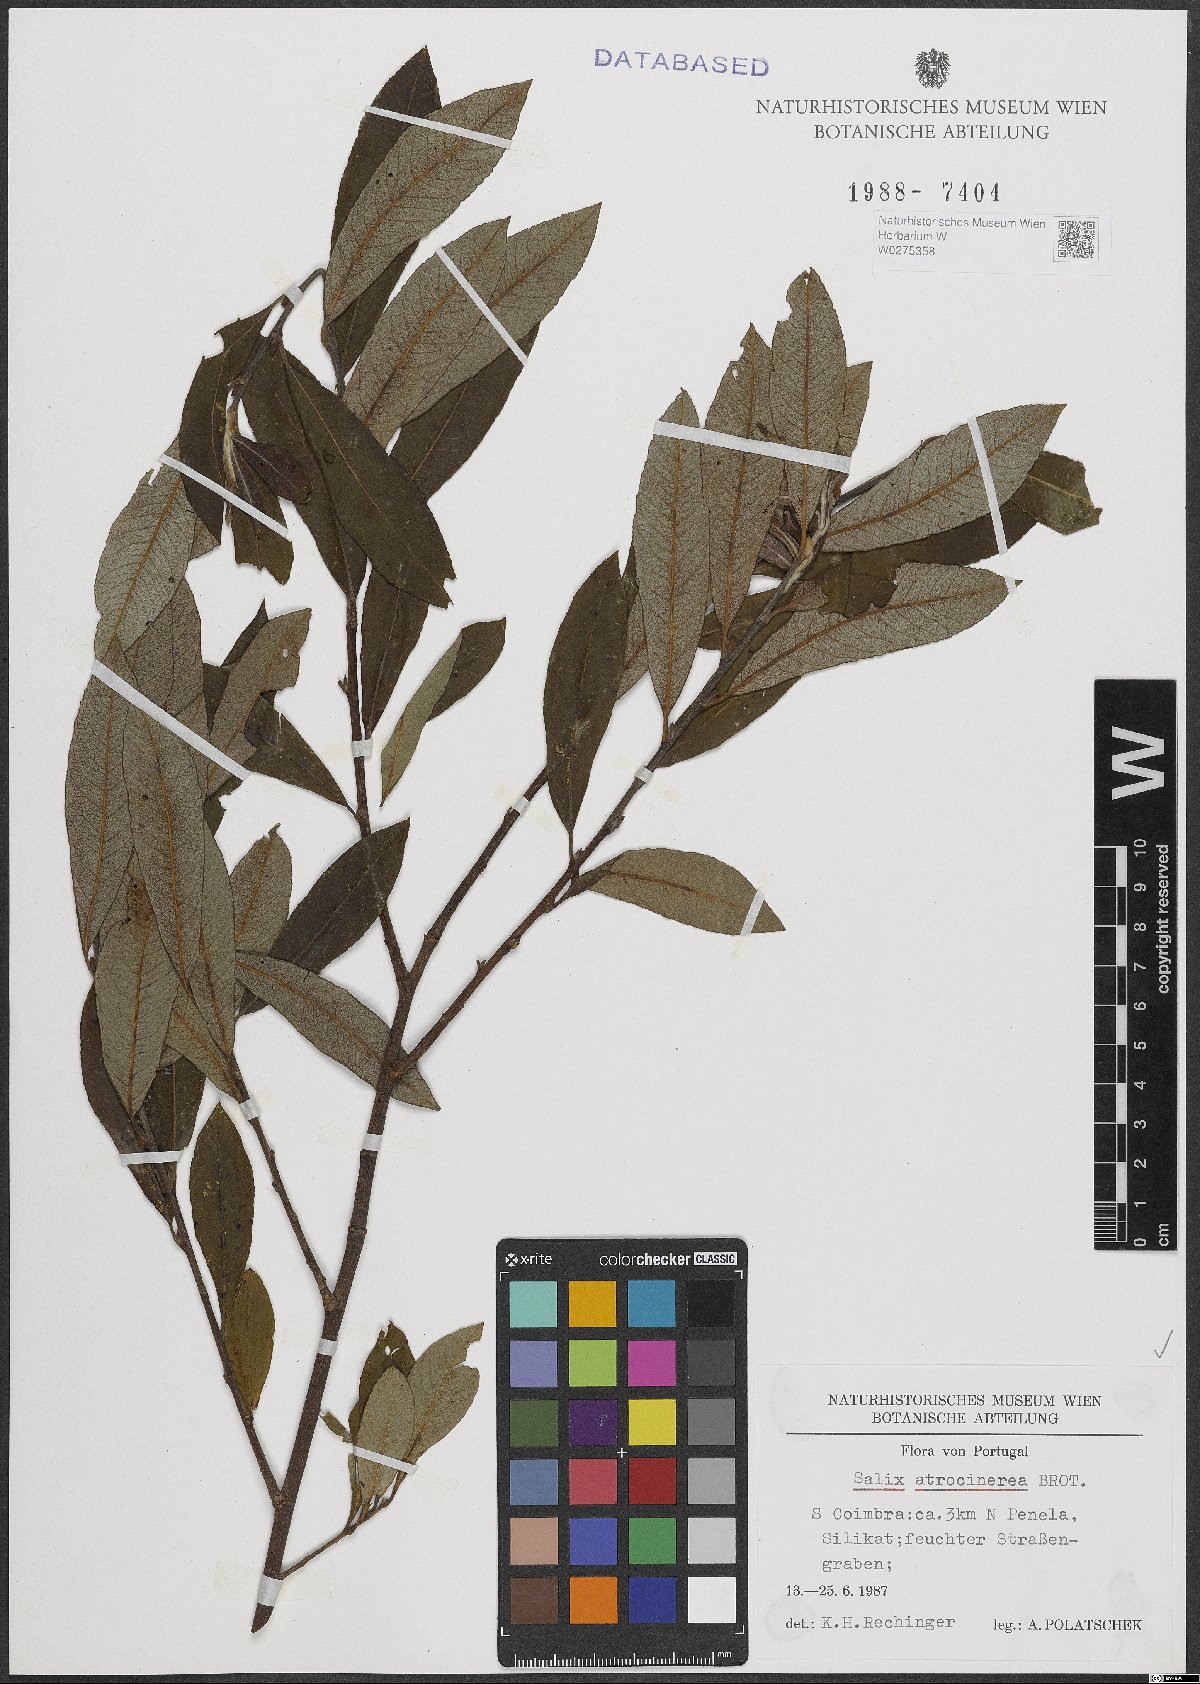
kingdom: Plantae
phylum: Tracheophyta
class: Magnoliopsida
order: Malpighiales
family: Salicaceae
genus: Salix
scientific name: Salix atrocinerea
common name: Rusty willow
